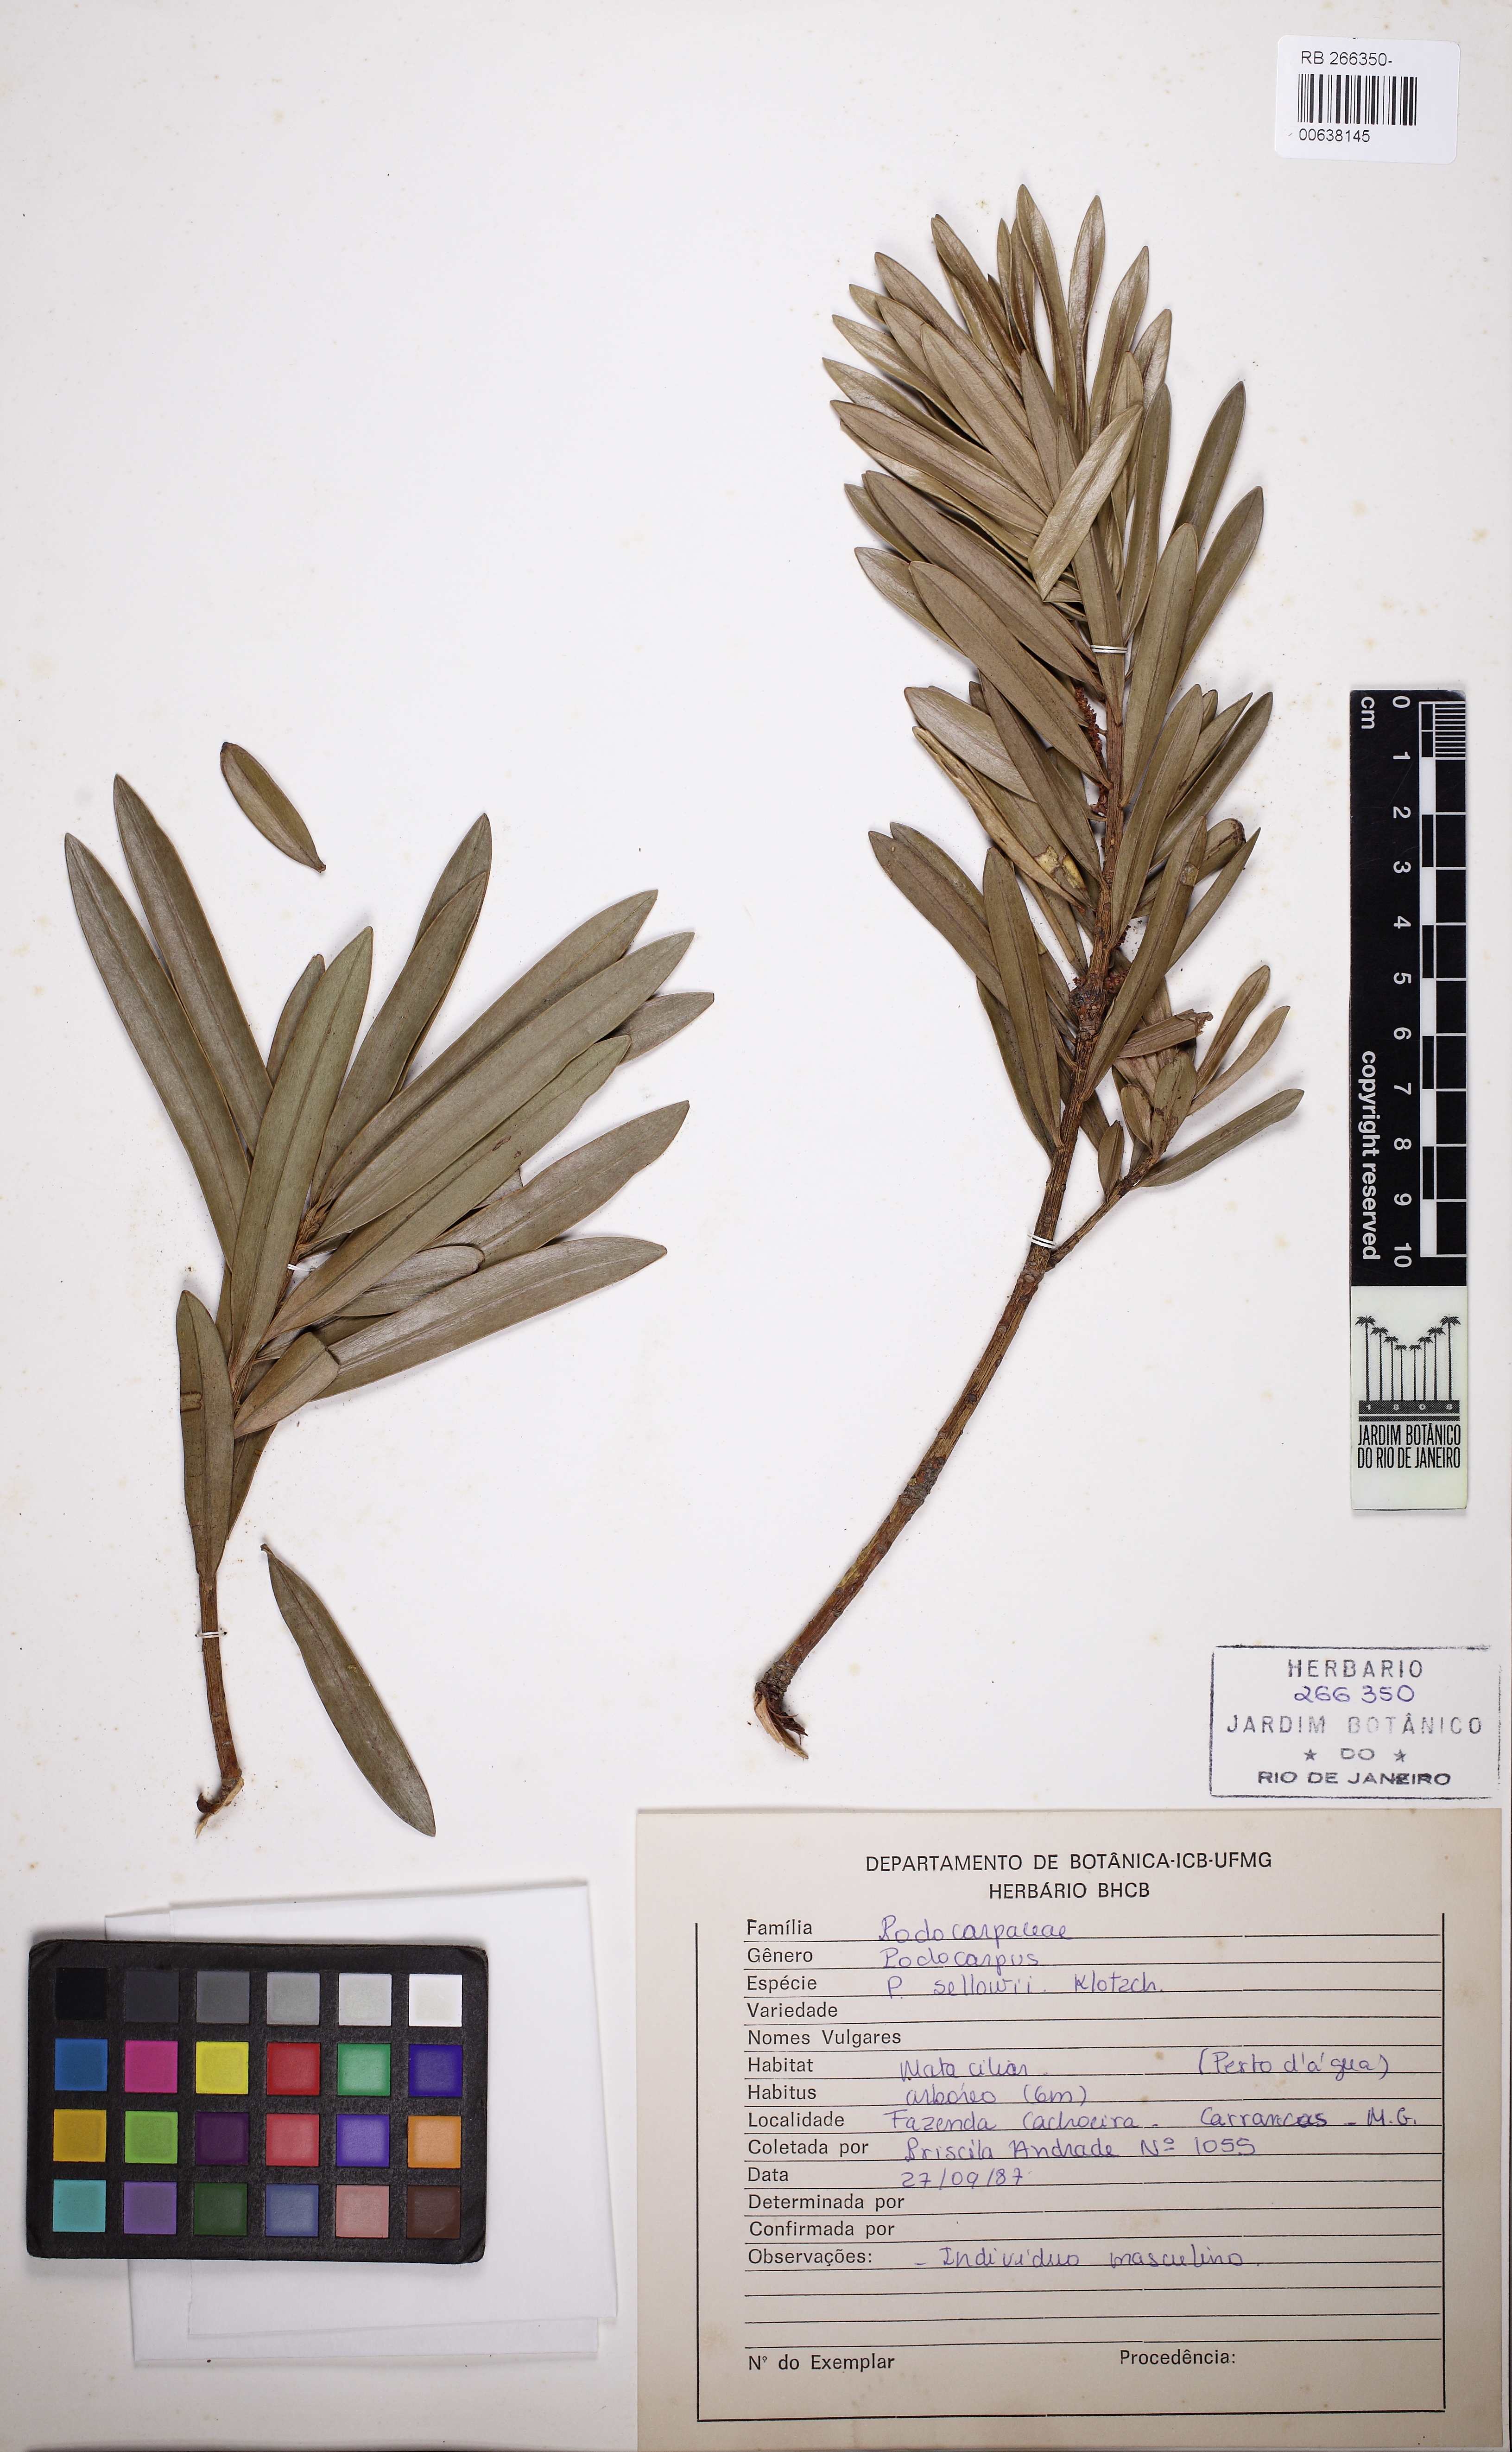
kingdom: Plantae
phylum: Tracheophyta
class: Pinopsida
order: Pinales
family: Podocarpaceae
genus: Podocarpus
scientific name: Podocarpus sellowii
